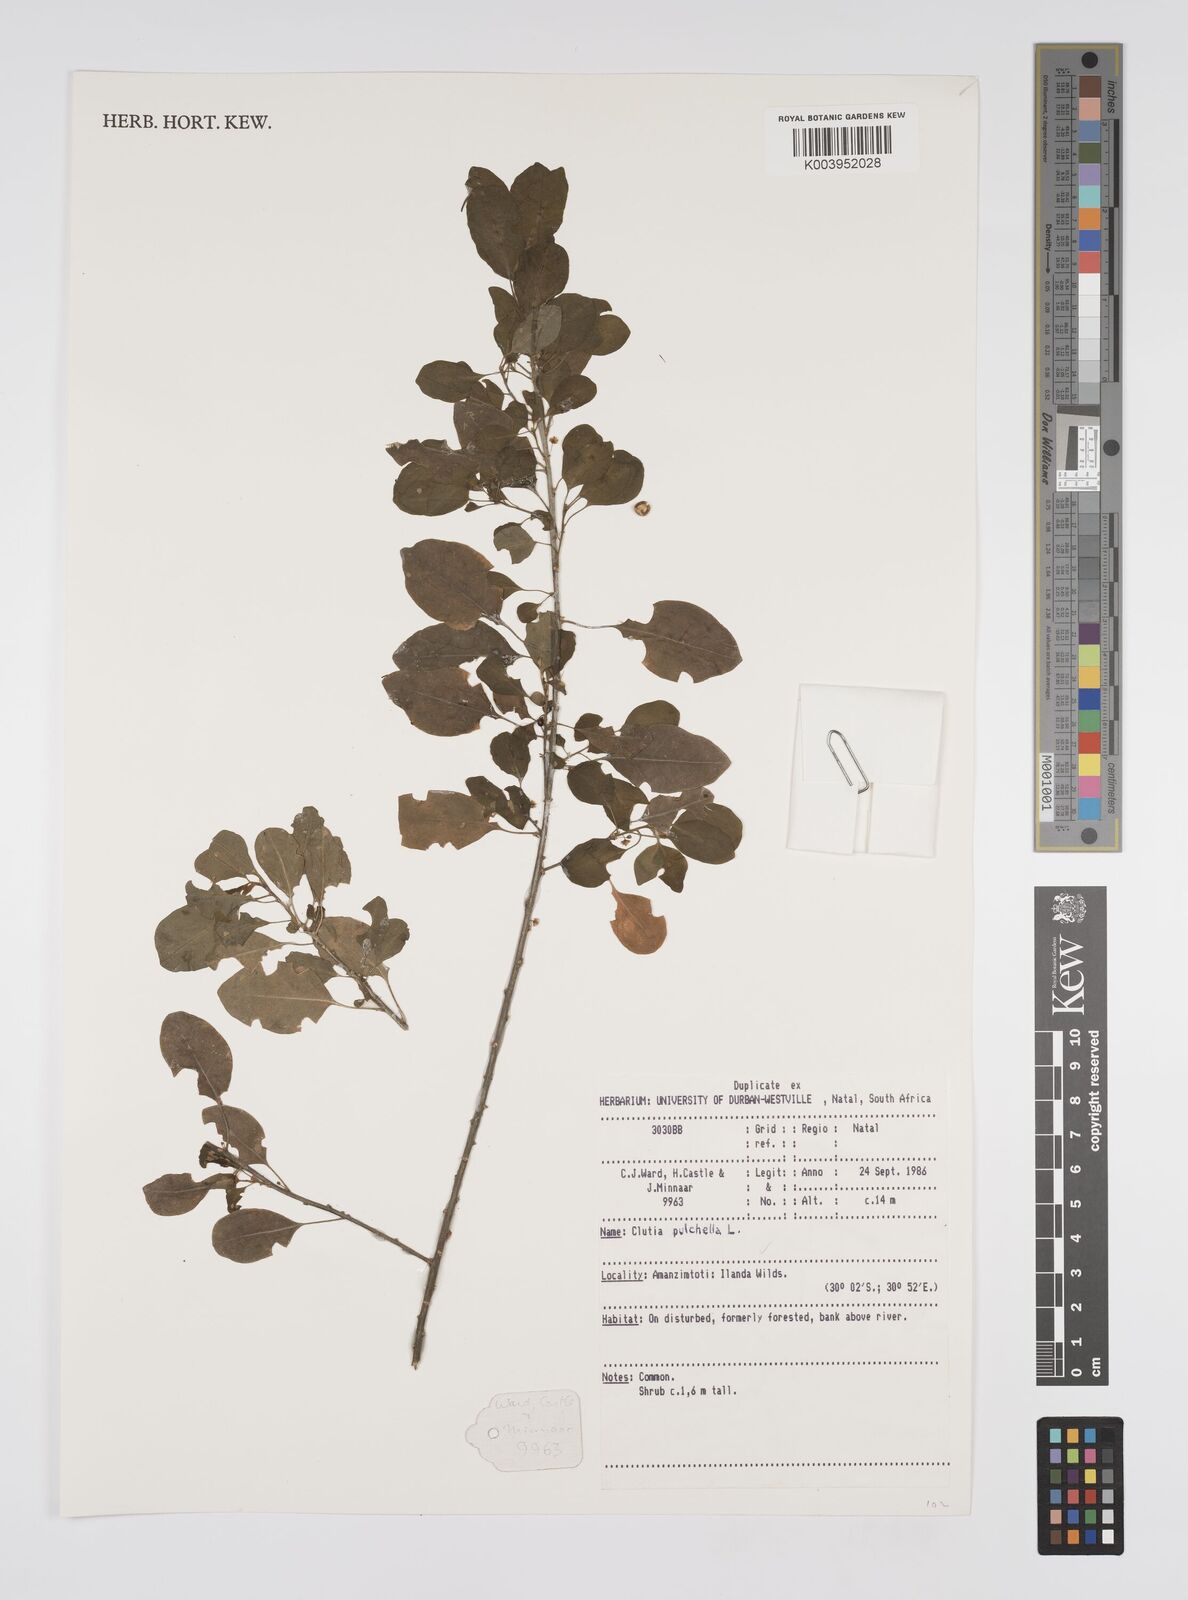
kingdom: Plantae
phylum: Tracheophyta
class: Magnoliopsida
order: Malpighiales
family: Peraceae
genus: Clutia
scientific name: Clutia pulchella
